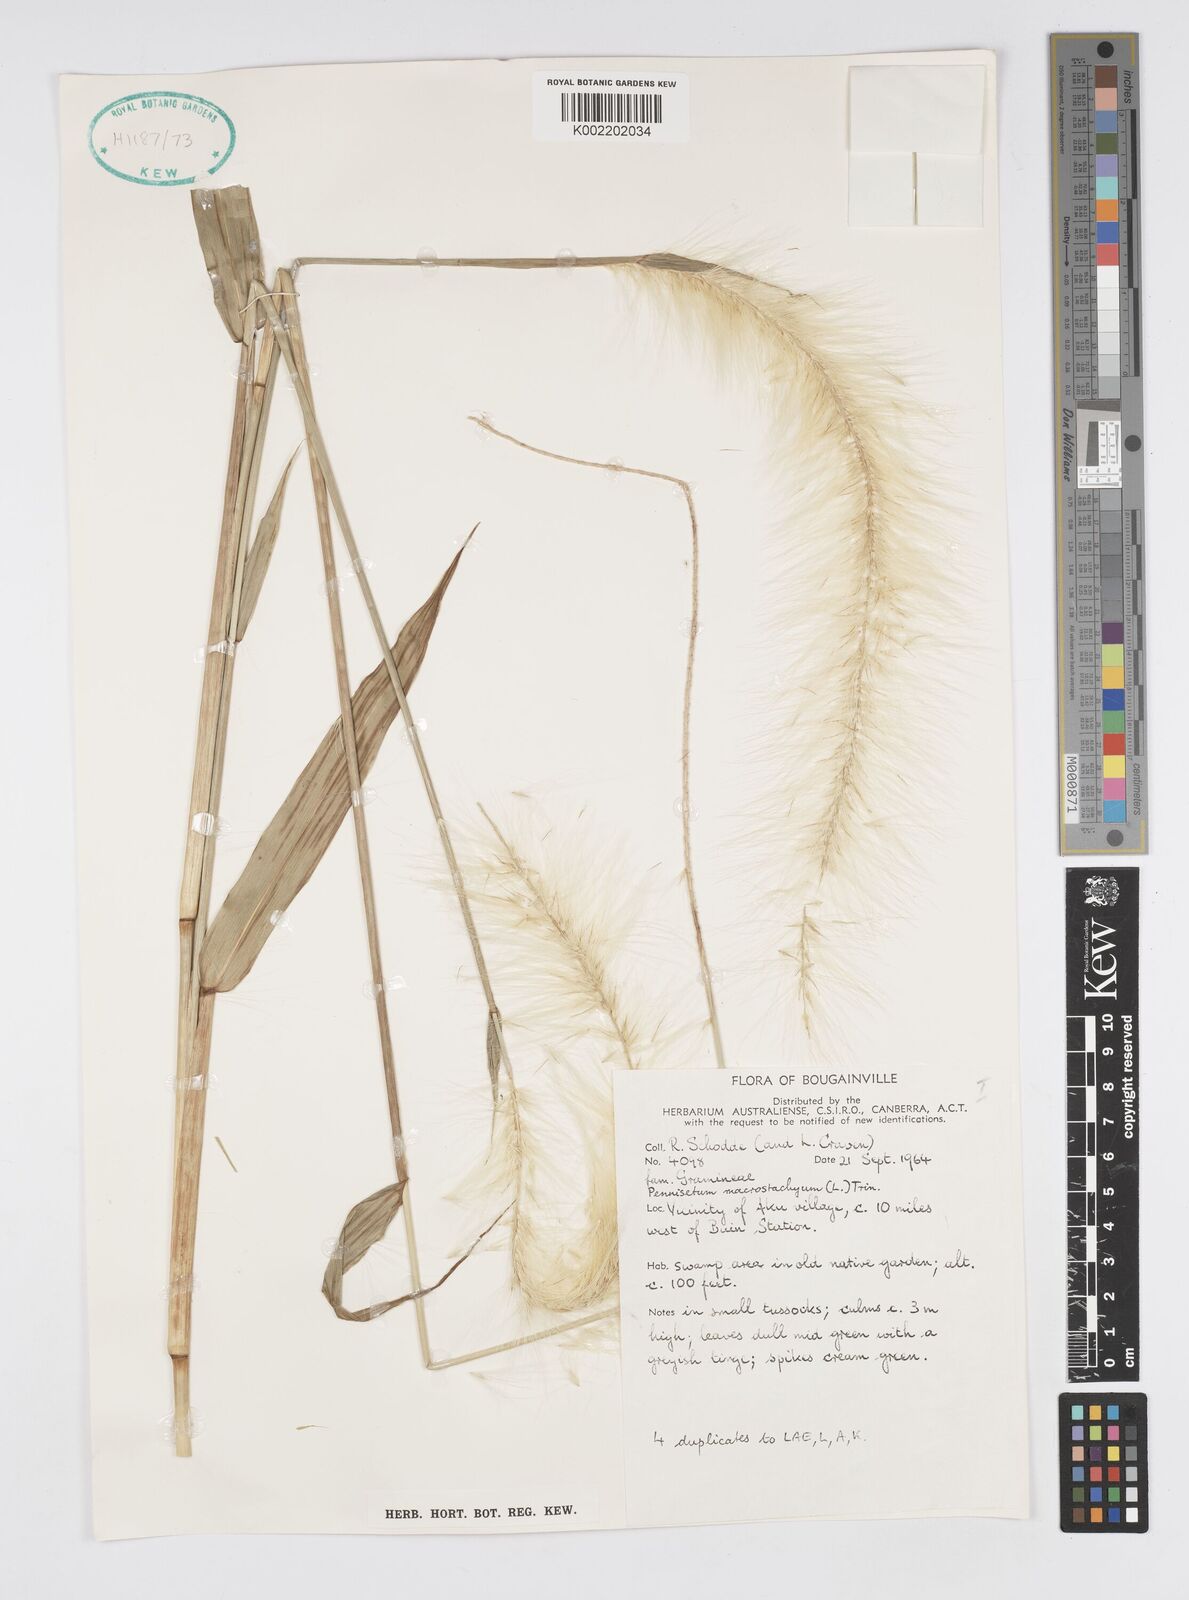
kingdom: Plantae
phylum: Tracheophyta
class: Liliopsida
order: Poales
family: Poaceae
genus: Cenchrus
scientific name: Cenchrus purpureus
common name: Elephant grass
